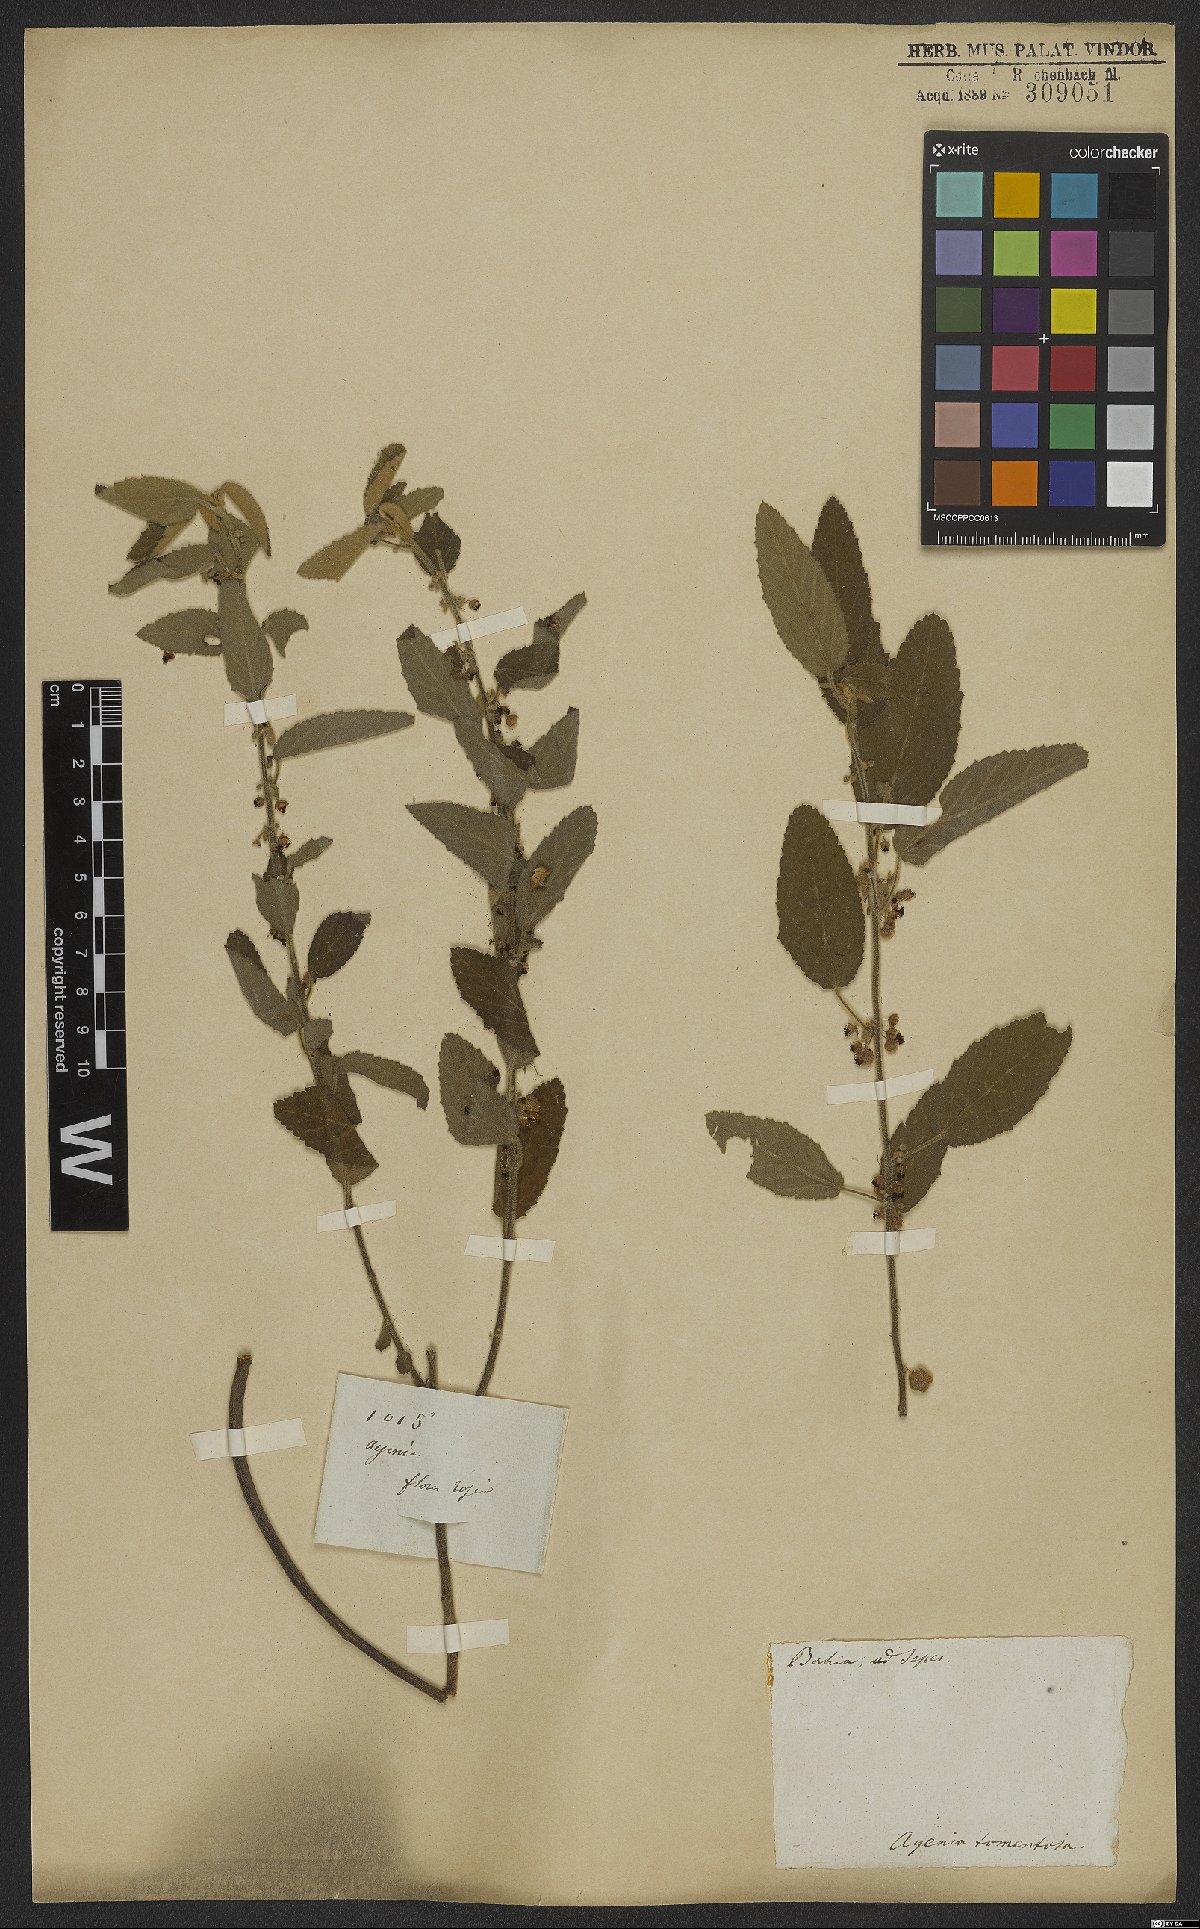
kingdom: Plantae
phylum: Tracheophyta
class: Magnoliopsida
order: Malvales
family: Malvaceae
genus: Ayenia
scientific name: Ayenia tomentosa
